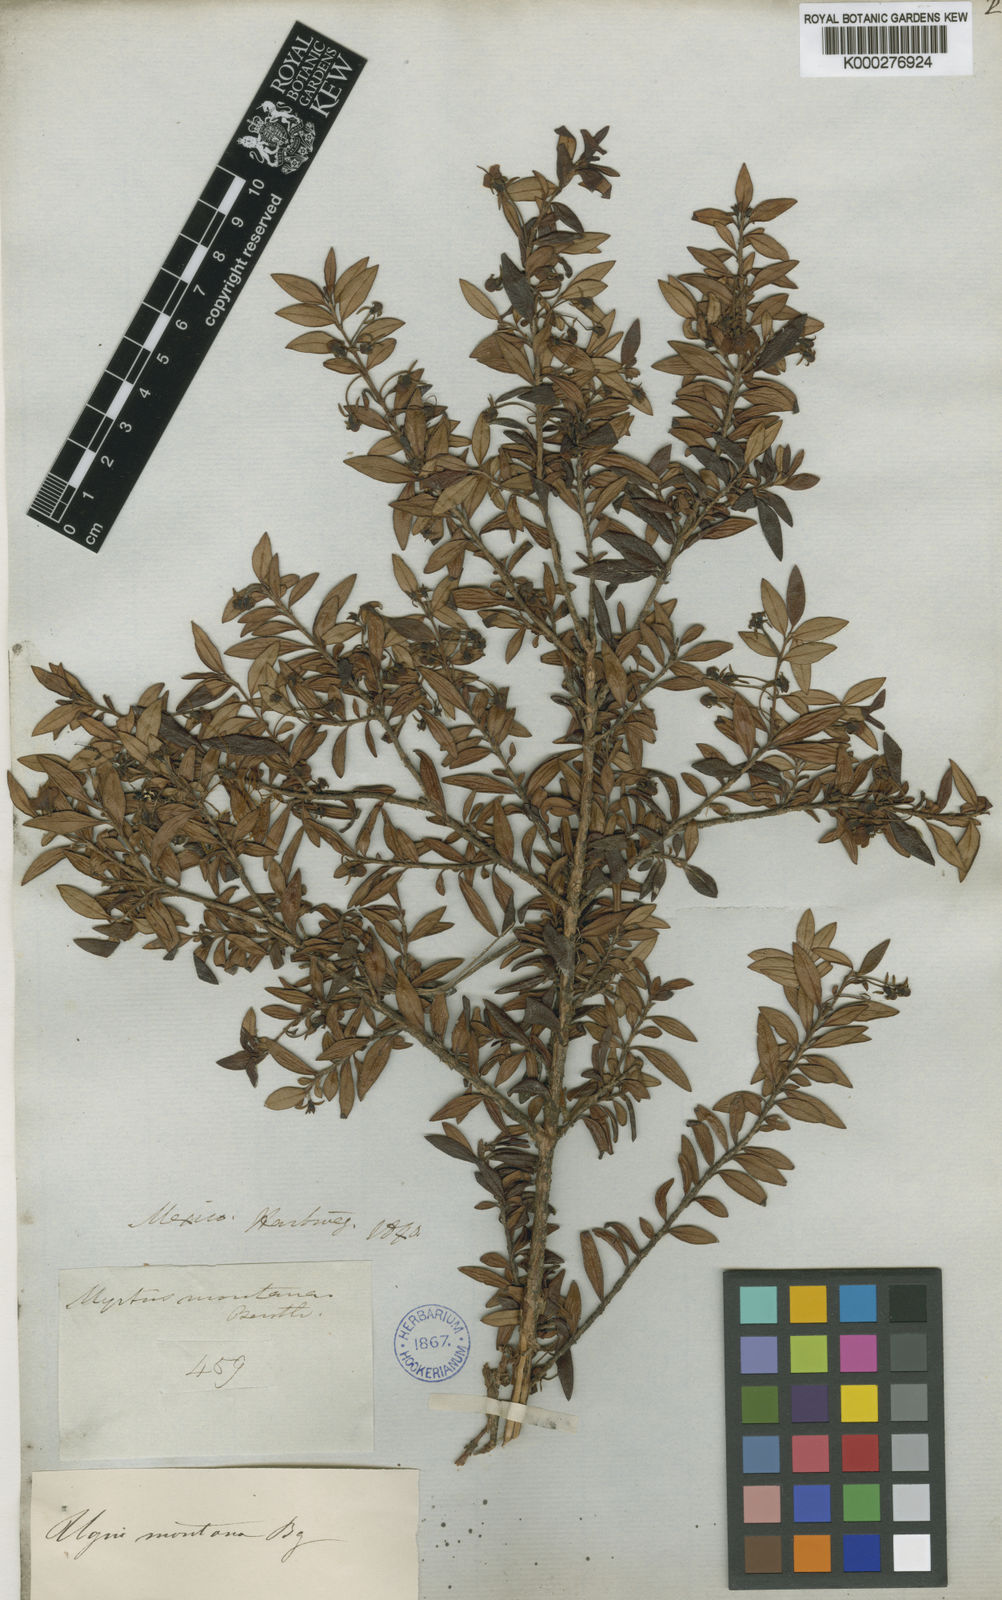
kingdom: Plantae
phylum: Tracheophyta
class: Magnoliopsida
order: Myrtales
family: Myrtaceae
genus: Ugni
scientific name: Ugni myricoides
